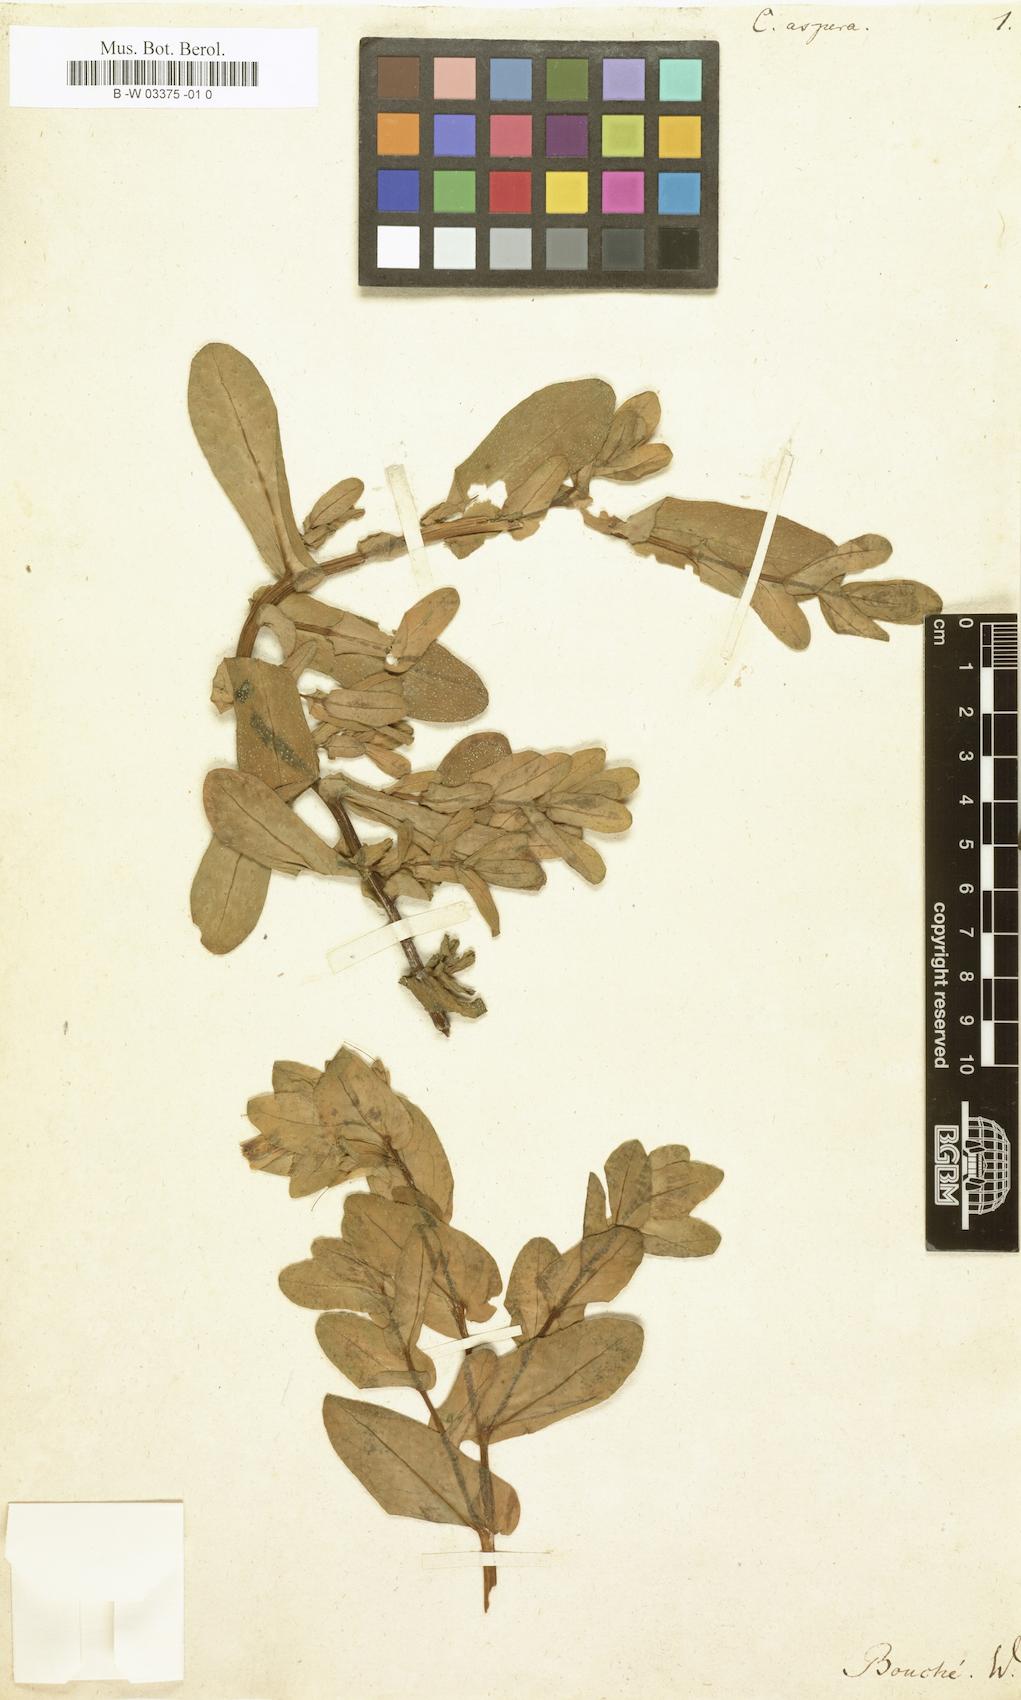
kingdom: Plantae
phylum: Tracheophyta
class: Magnoliopsida
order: Boraginales
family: Boraginaceae
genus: Cerinthe
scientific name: Cerinthe major
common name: Greater honeywort
